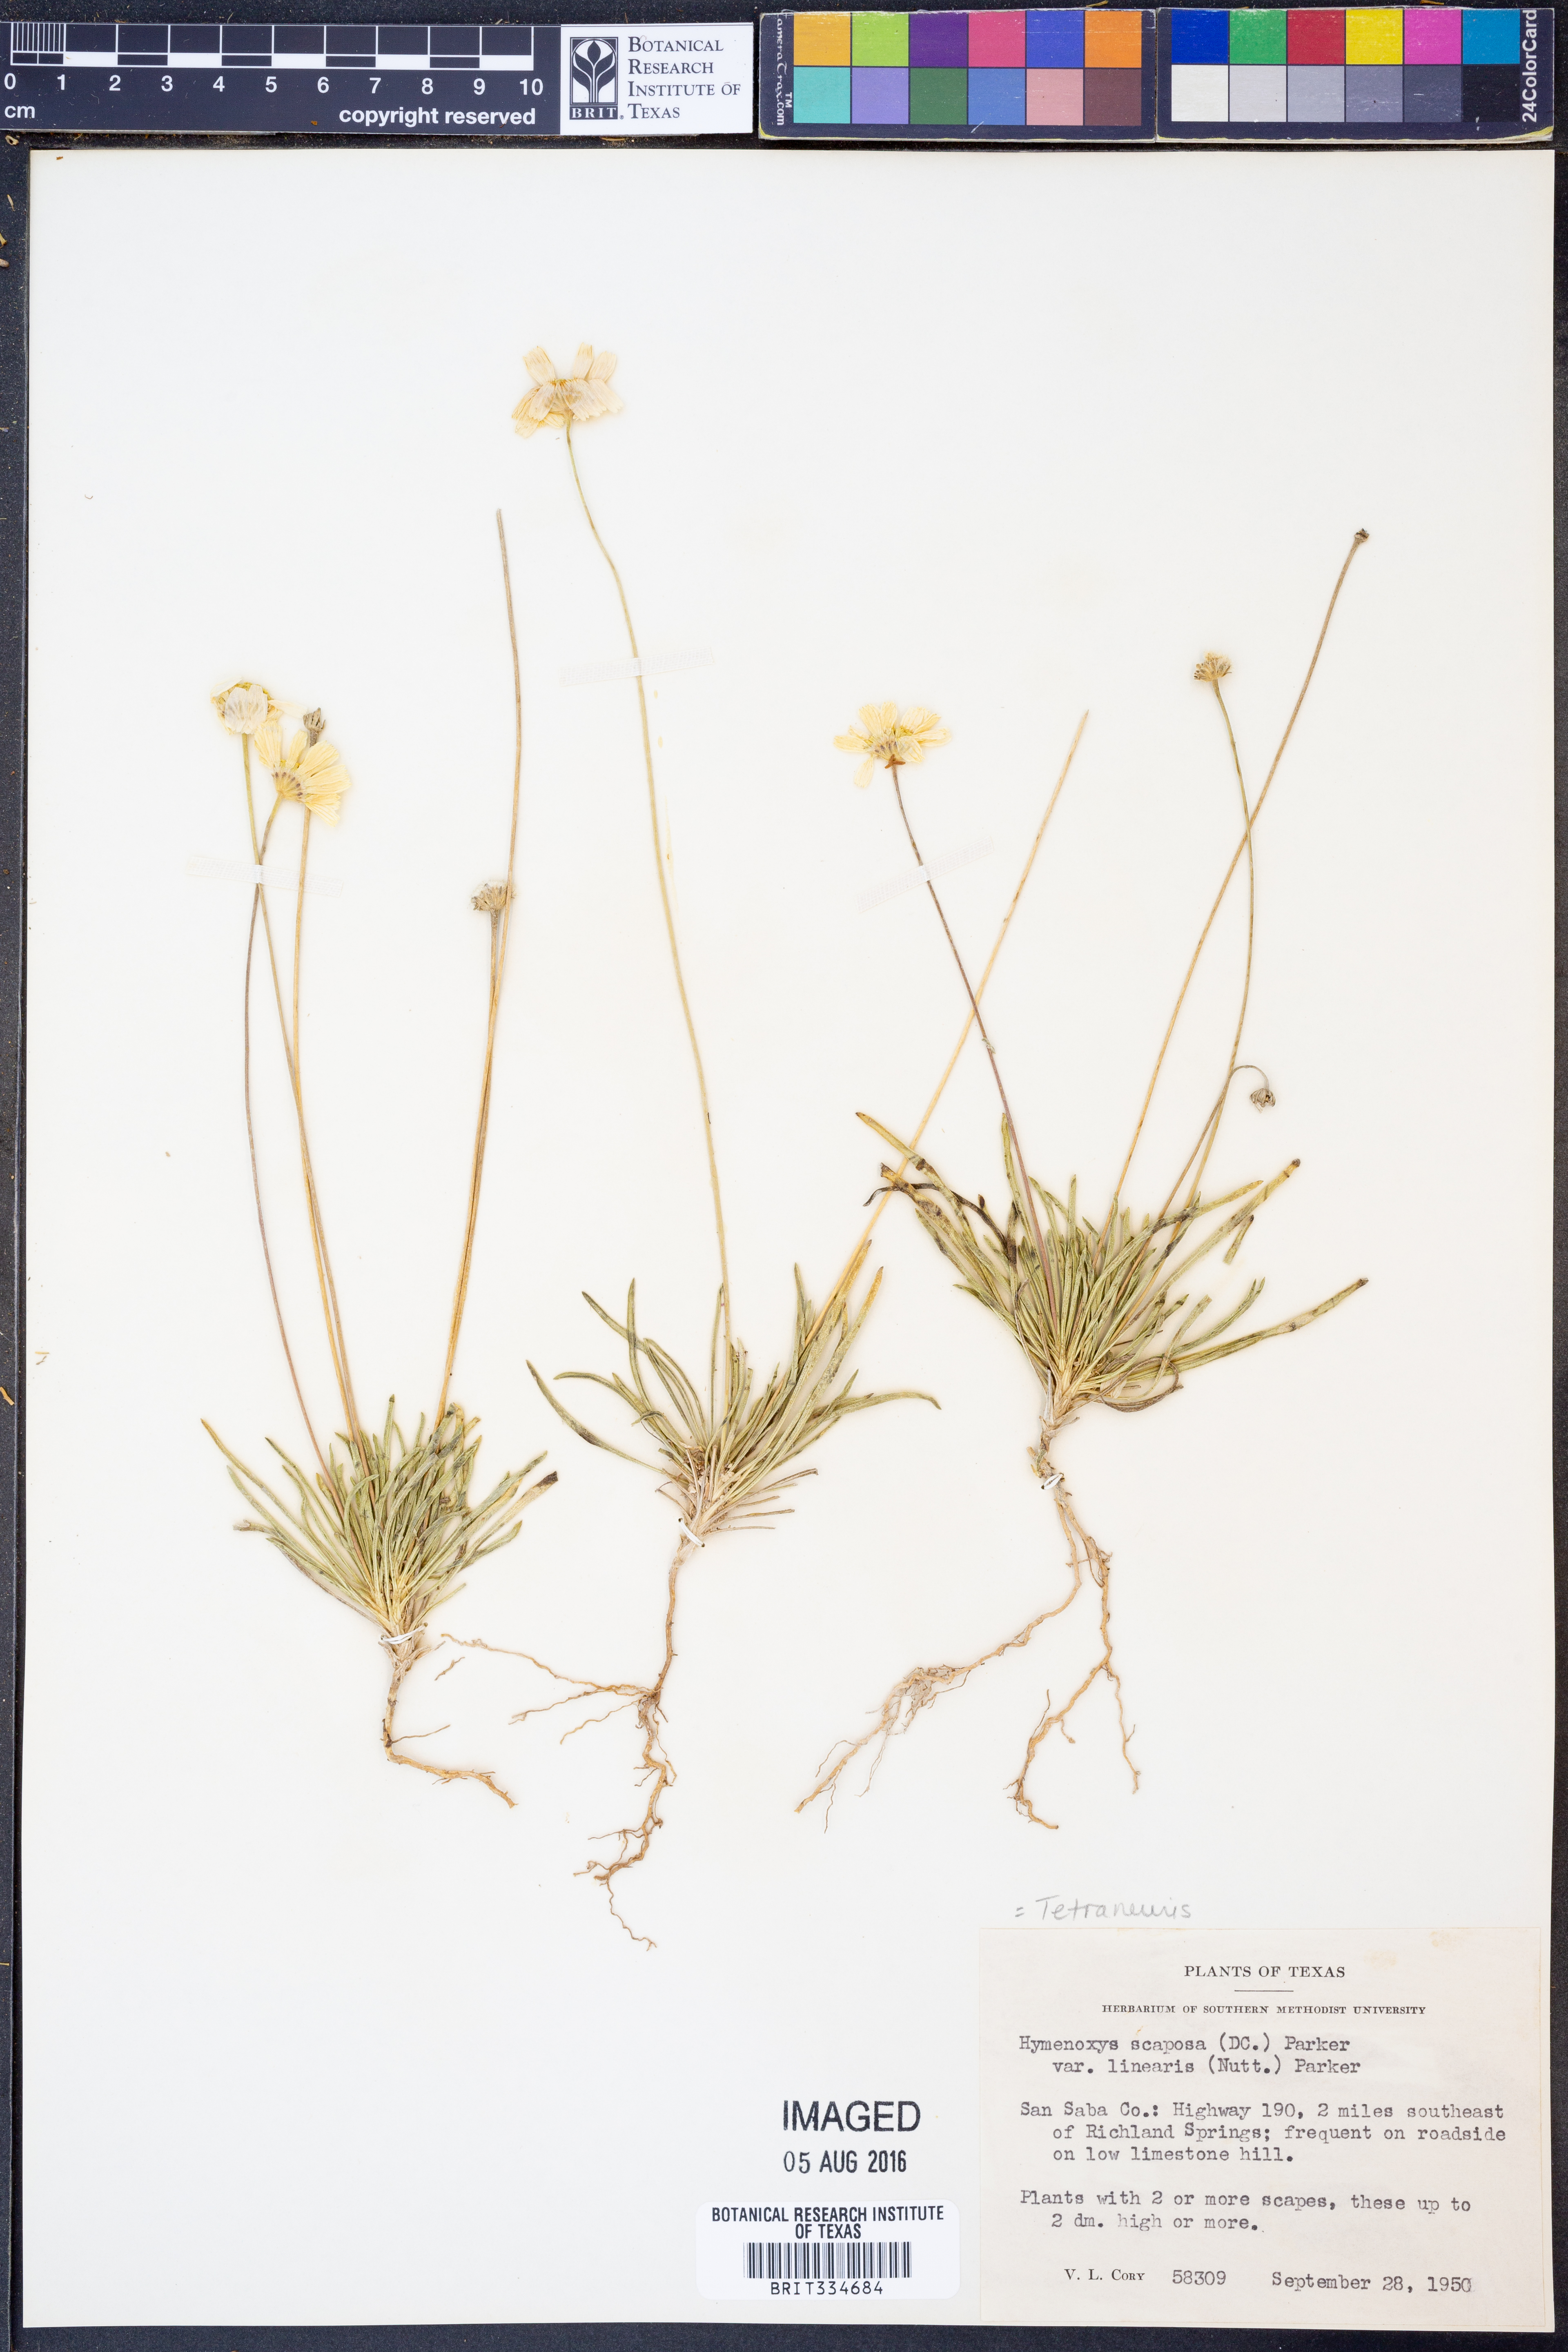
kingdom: Plantae
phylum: Tracheophyta
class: Magnoliopsida
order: Asterales
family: Asteraceae
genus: Tetraneuris
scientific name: Tetraneuris scaposa
